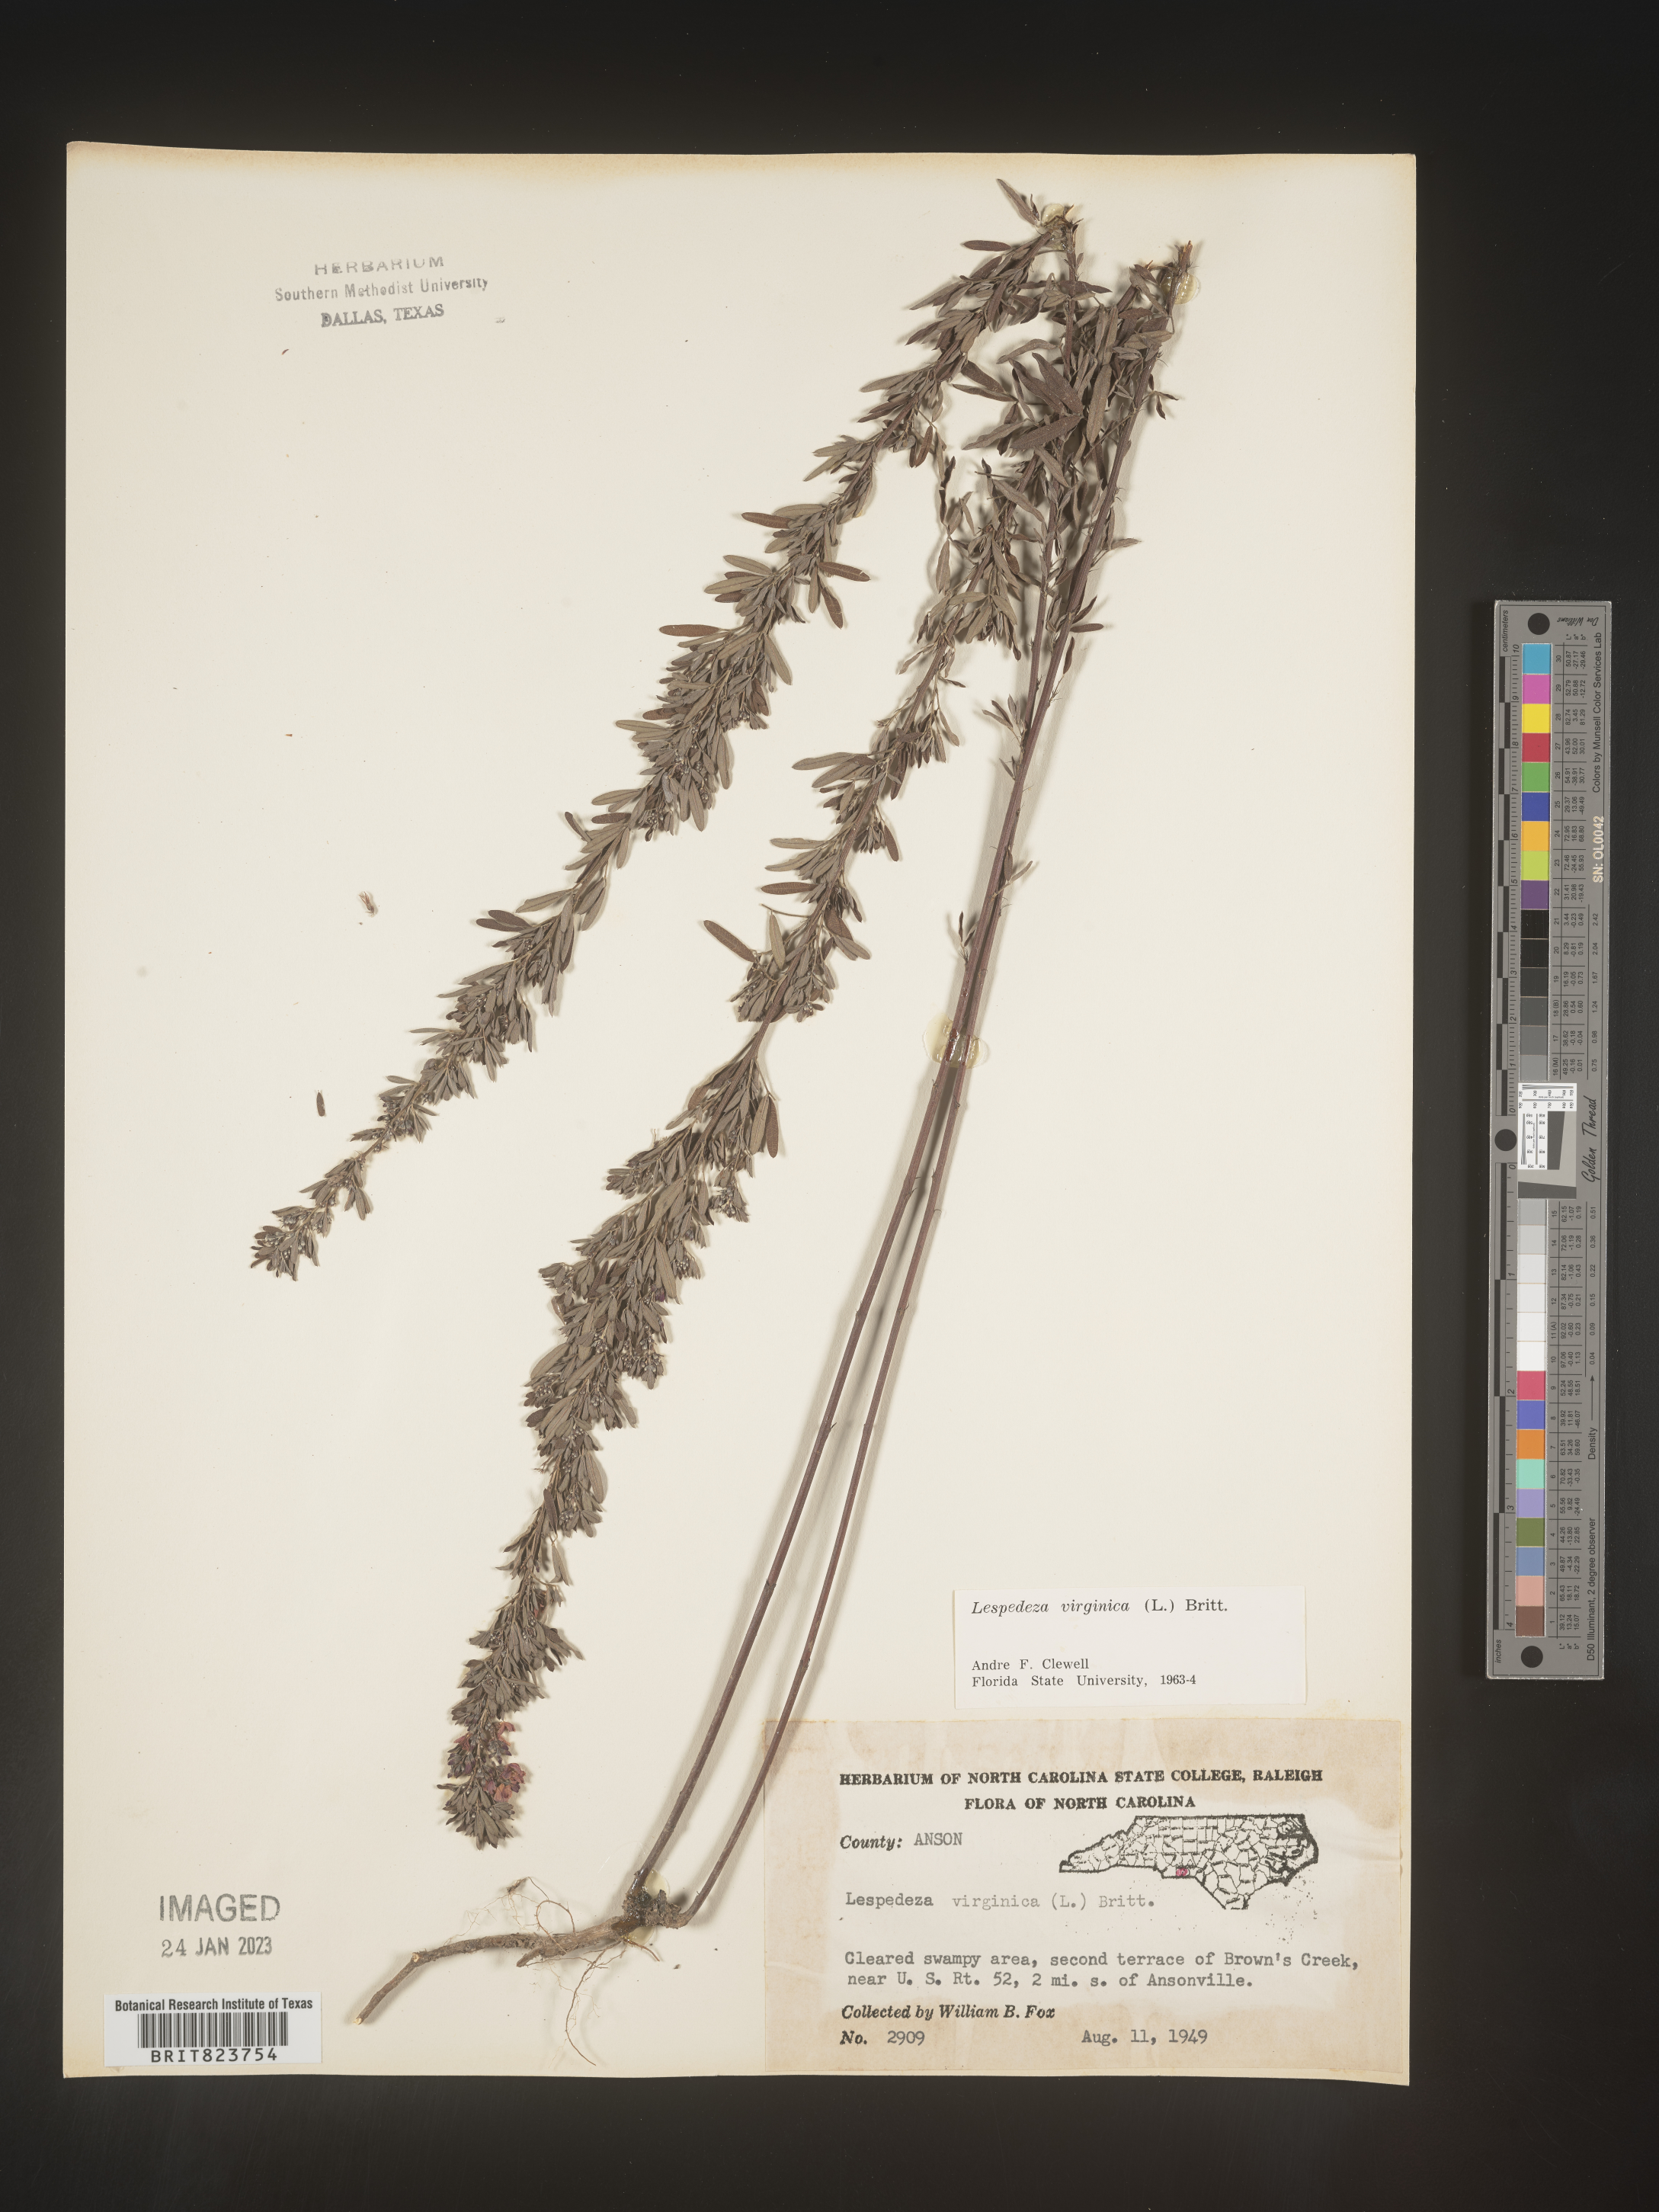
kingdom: Plantae
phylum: Tracheophyta
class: Magnoliopsida
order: Fabales
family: Fabaceae
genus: Lespedeza
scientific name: Lespedeza virginica
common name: Slender bush-clover
